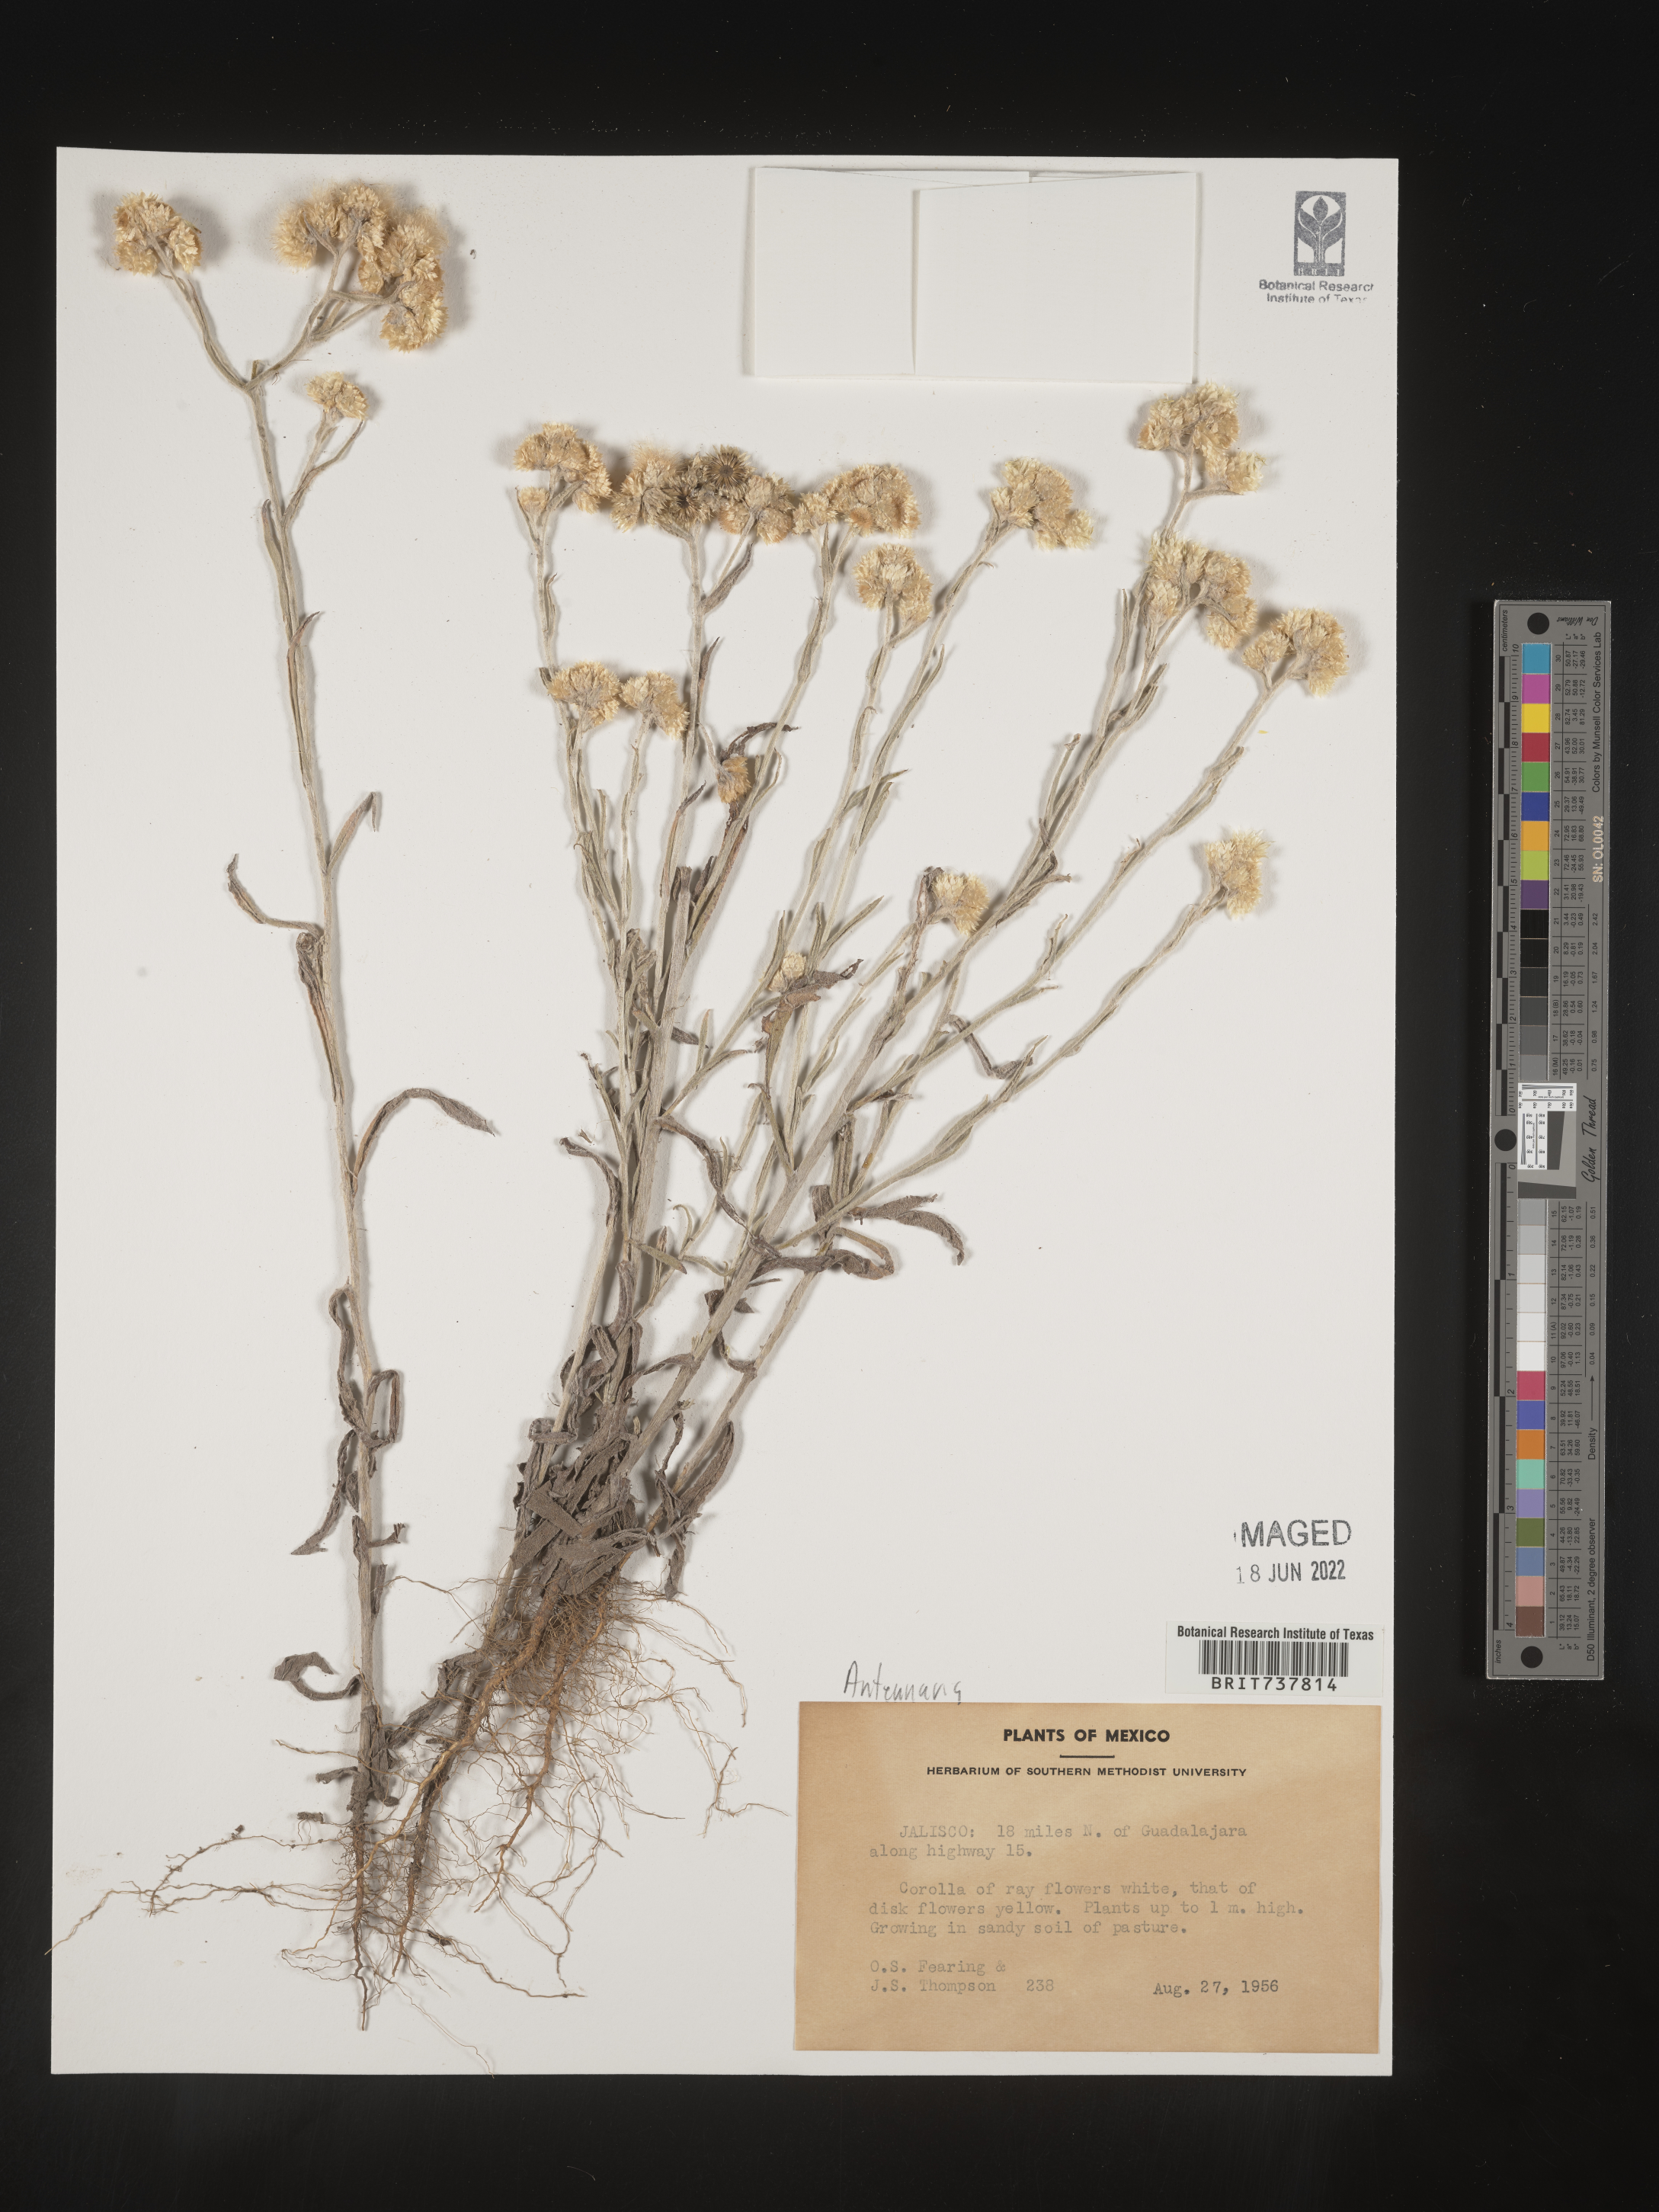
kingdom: Plantae
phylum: Tracheophyta
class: Magnoliopsida
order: Asterales
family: Asteraceae
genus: Pseudognaphalium
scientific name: Pseudognaphalium jaliscense
